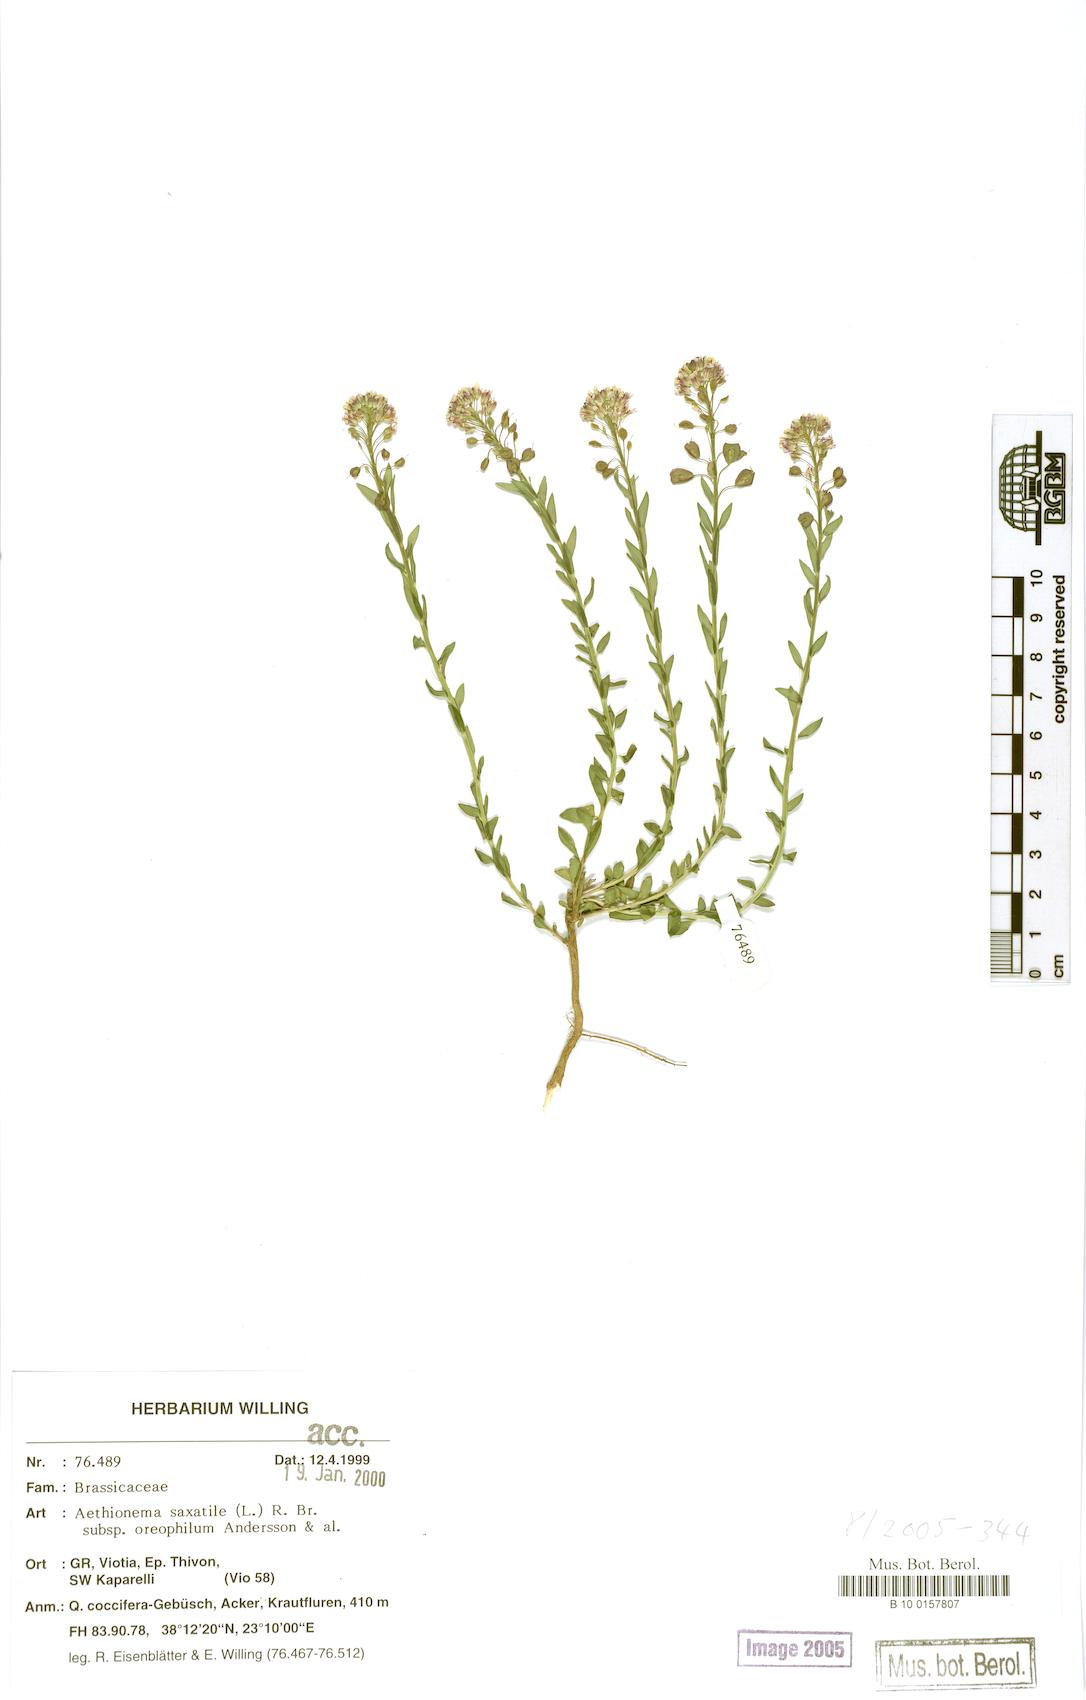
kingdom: Plantae
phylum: Tracheophyta
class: Magnoliopsida
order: Brassicales
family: Brassicaceae
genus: Aethionema
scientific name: Aethionema saxatile
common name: Burnt candytuft
